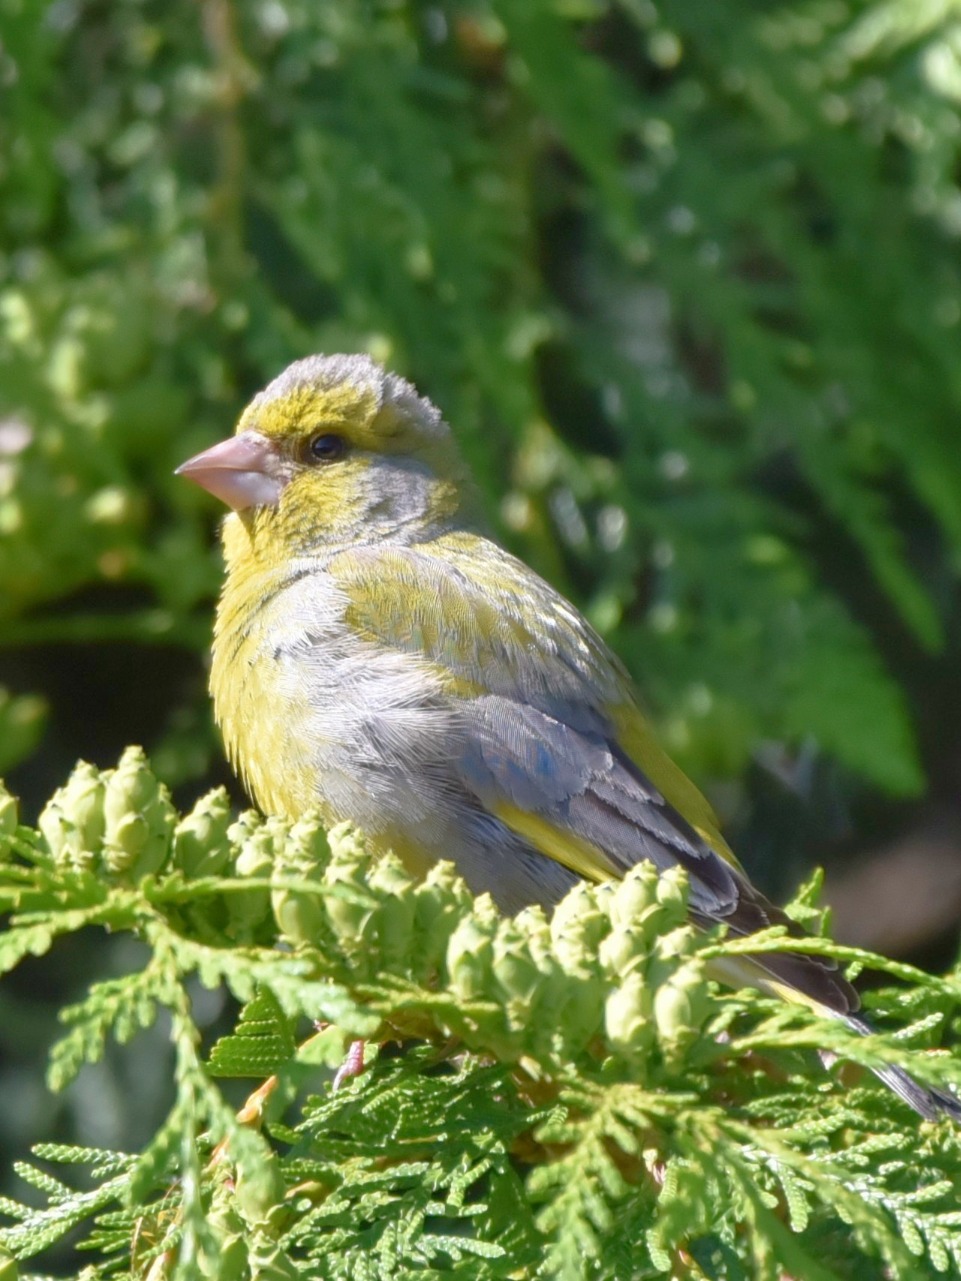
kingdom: Plantae
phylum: Tracheophyta
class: Liliopsida
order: Poales
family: Poaceae
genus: Chloris
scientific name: Chloris chloris
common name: Grønirisk
